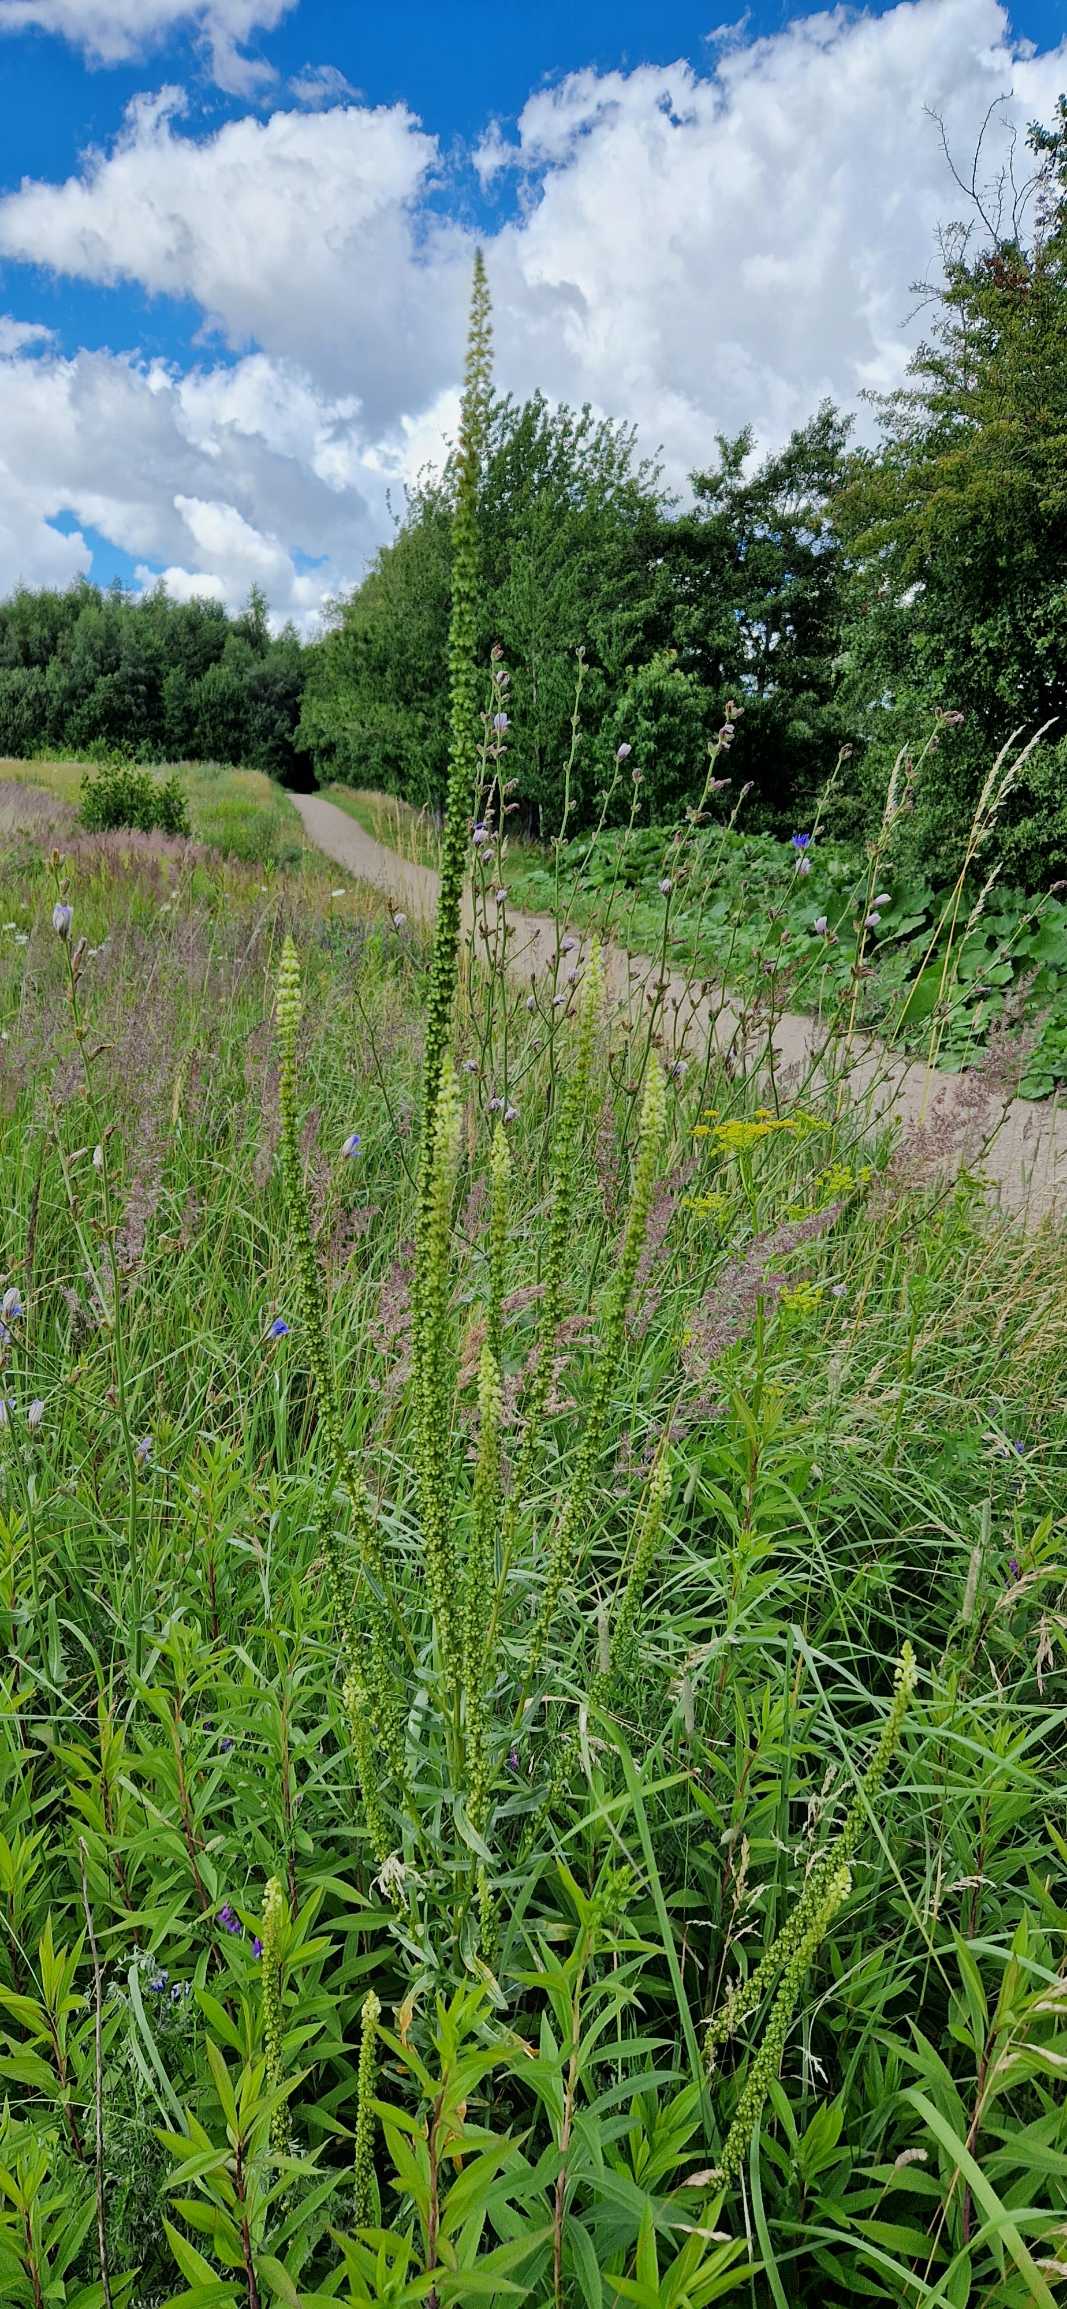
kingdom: Plantae
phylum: Tracheophyta
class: Magnoliopsida
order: Brassicales
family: Resedaceae
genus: Reseda
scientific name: Reseda luteola
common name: Farve-reseda
